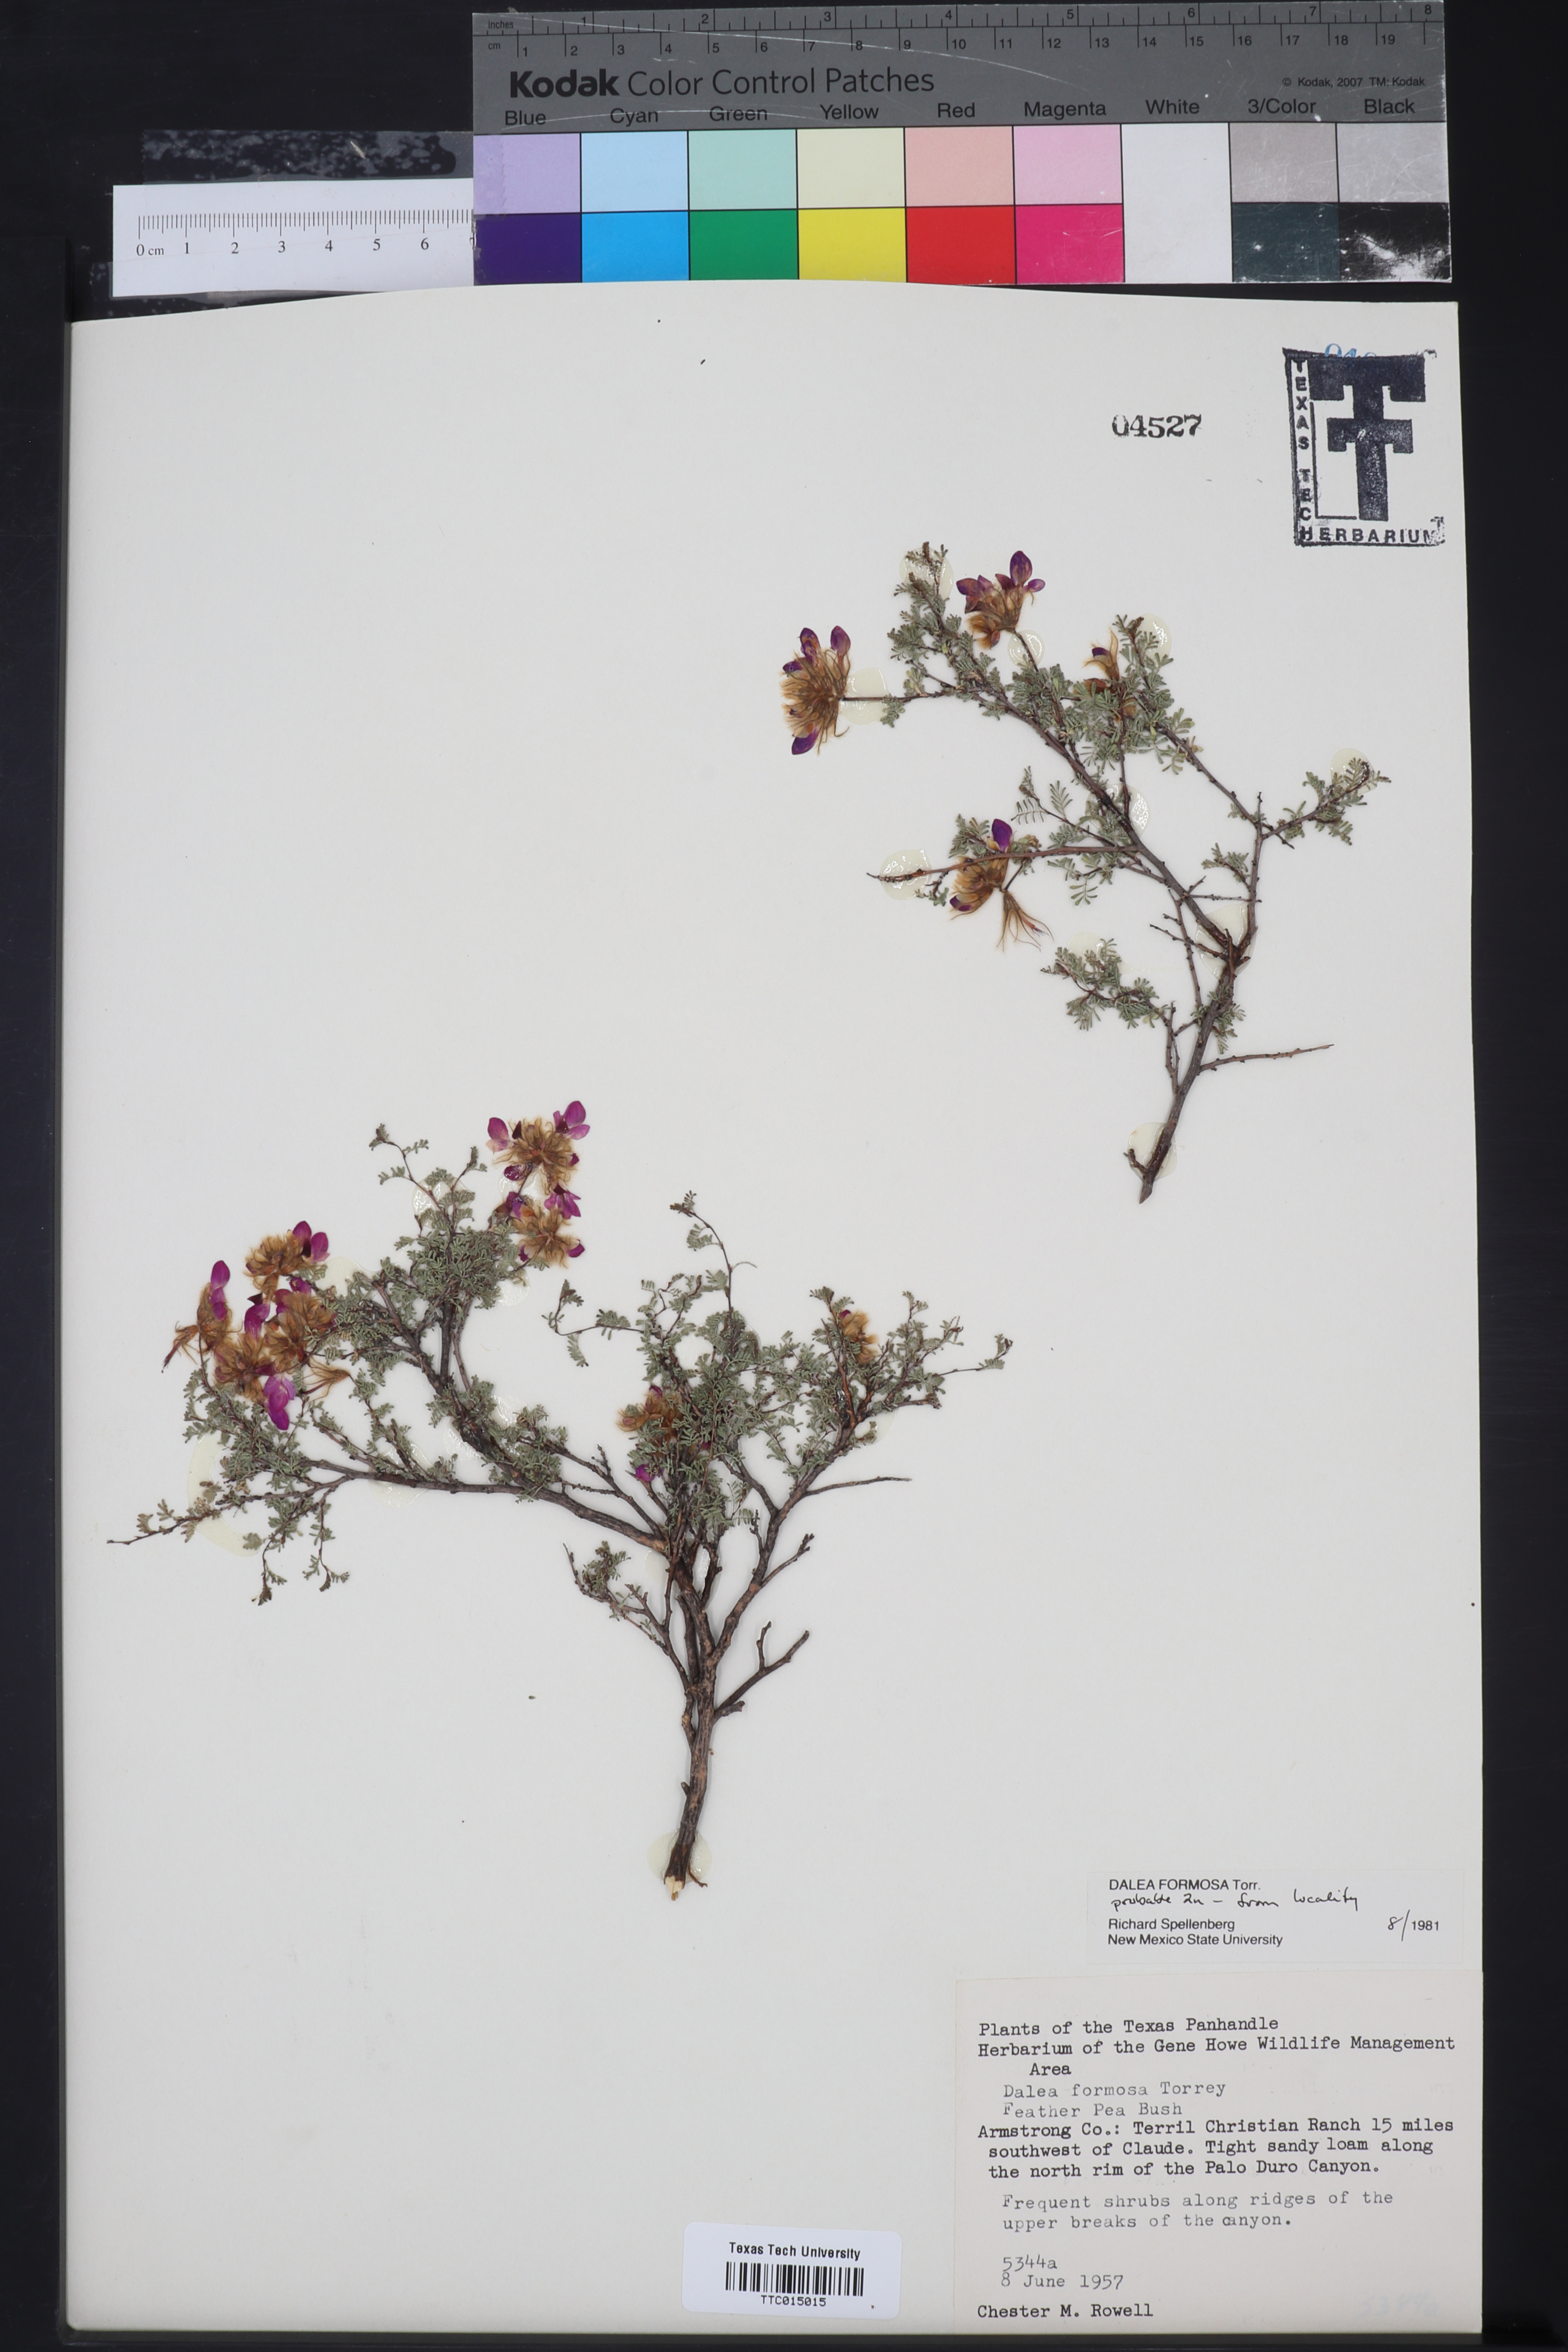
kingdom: Plantae
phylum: Tracheophyta
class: Magnoliopsida
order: Fabales
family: Fabaceae
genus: Dalea
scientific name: Dalea formosa
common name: Feather-plume dalea
